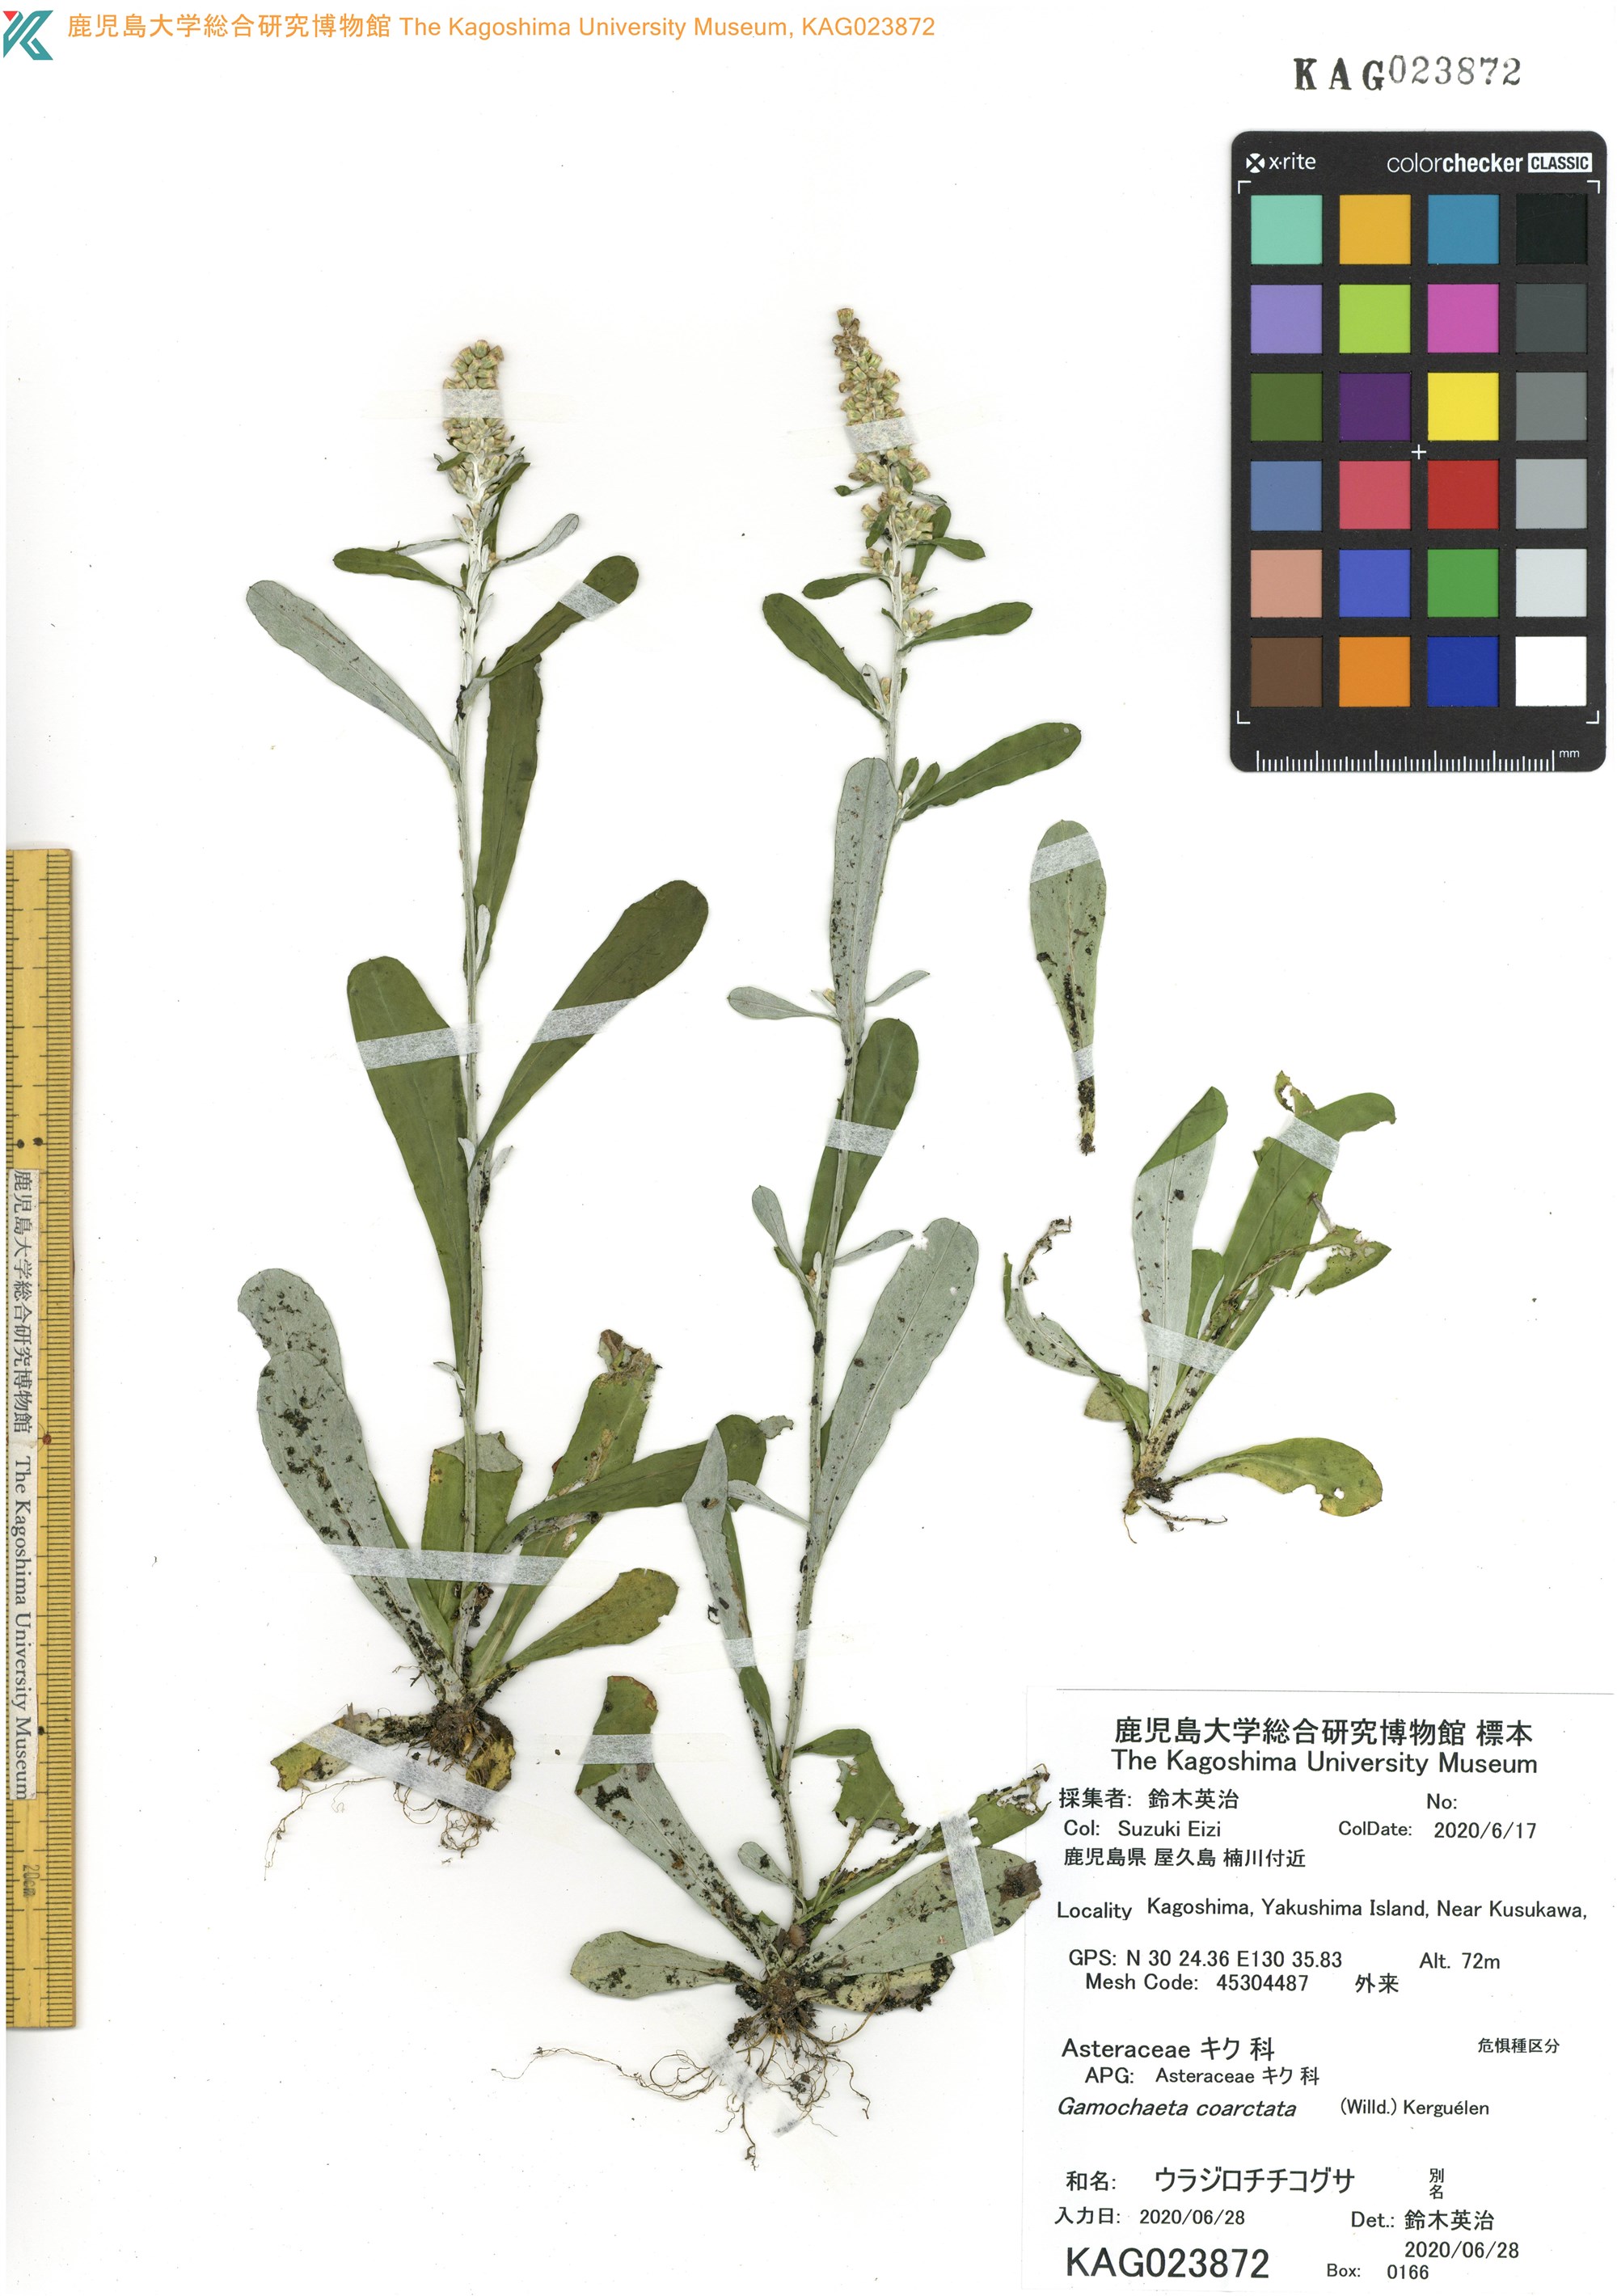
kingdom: Plantae
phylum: Tracheophyta
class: Magnoliopsida
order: Asterales
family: Asteraceae
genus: Gamochaeta
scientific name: Gamochaeta americana
